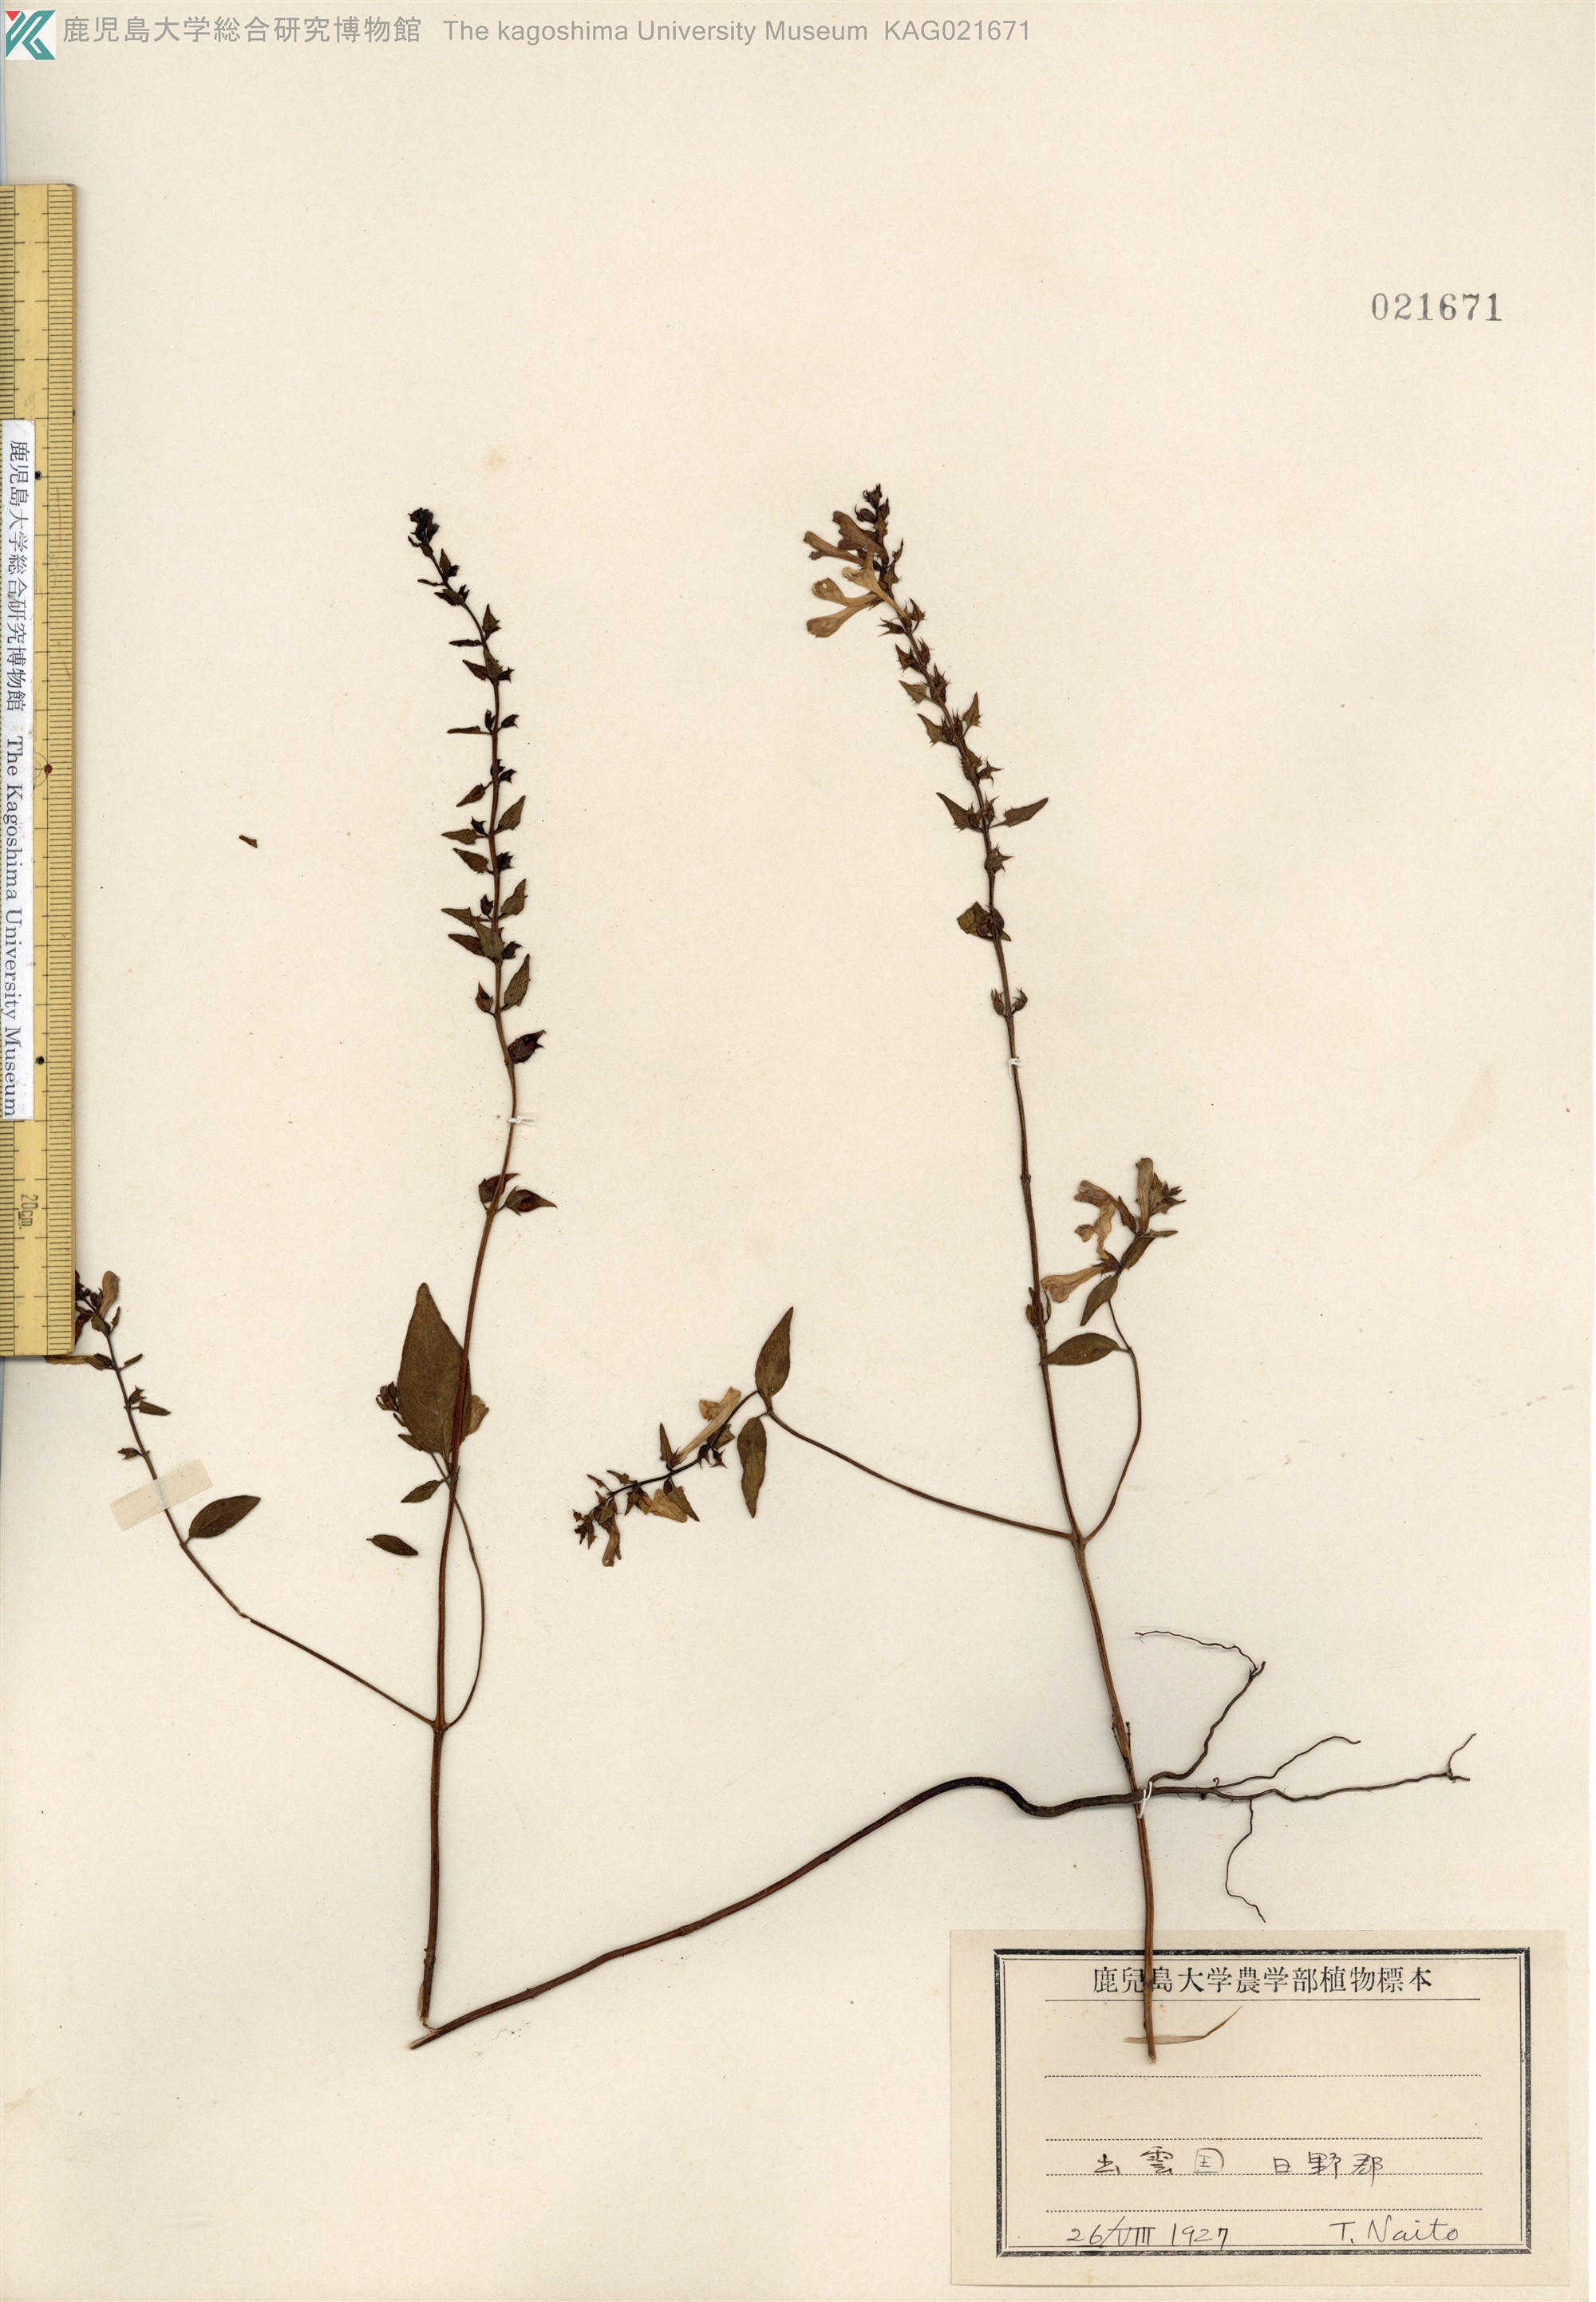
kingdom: Plantae
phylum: Tracheophyta
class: Magnoliopsida
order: Lamiales
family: Orobanchaceae
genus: Melampyrum
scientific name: Melampyrum laxum
